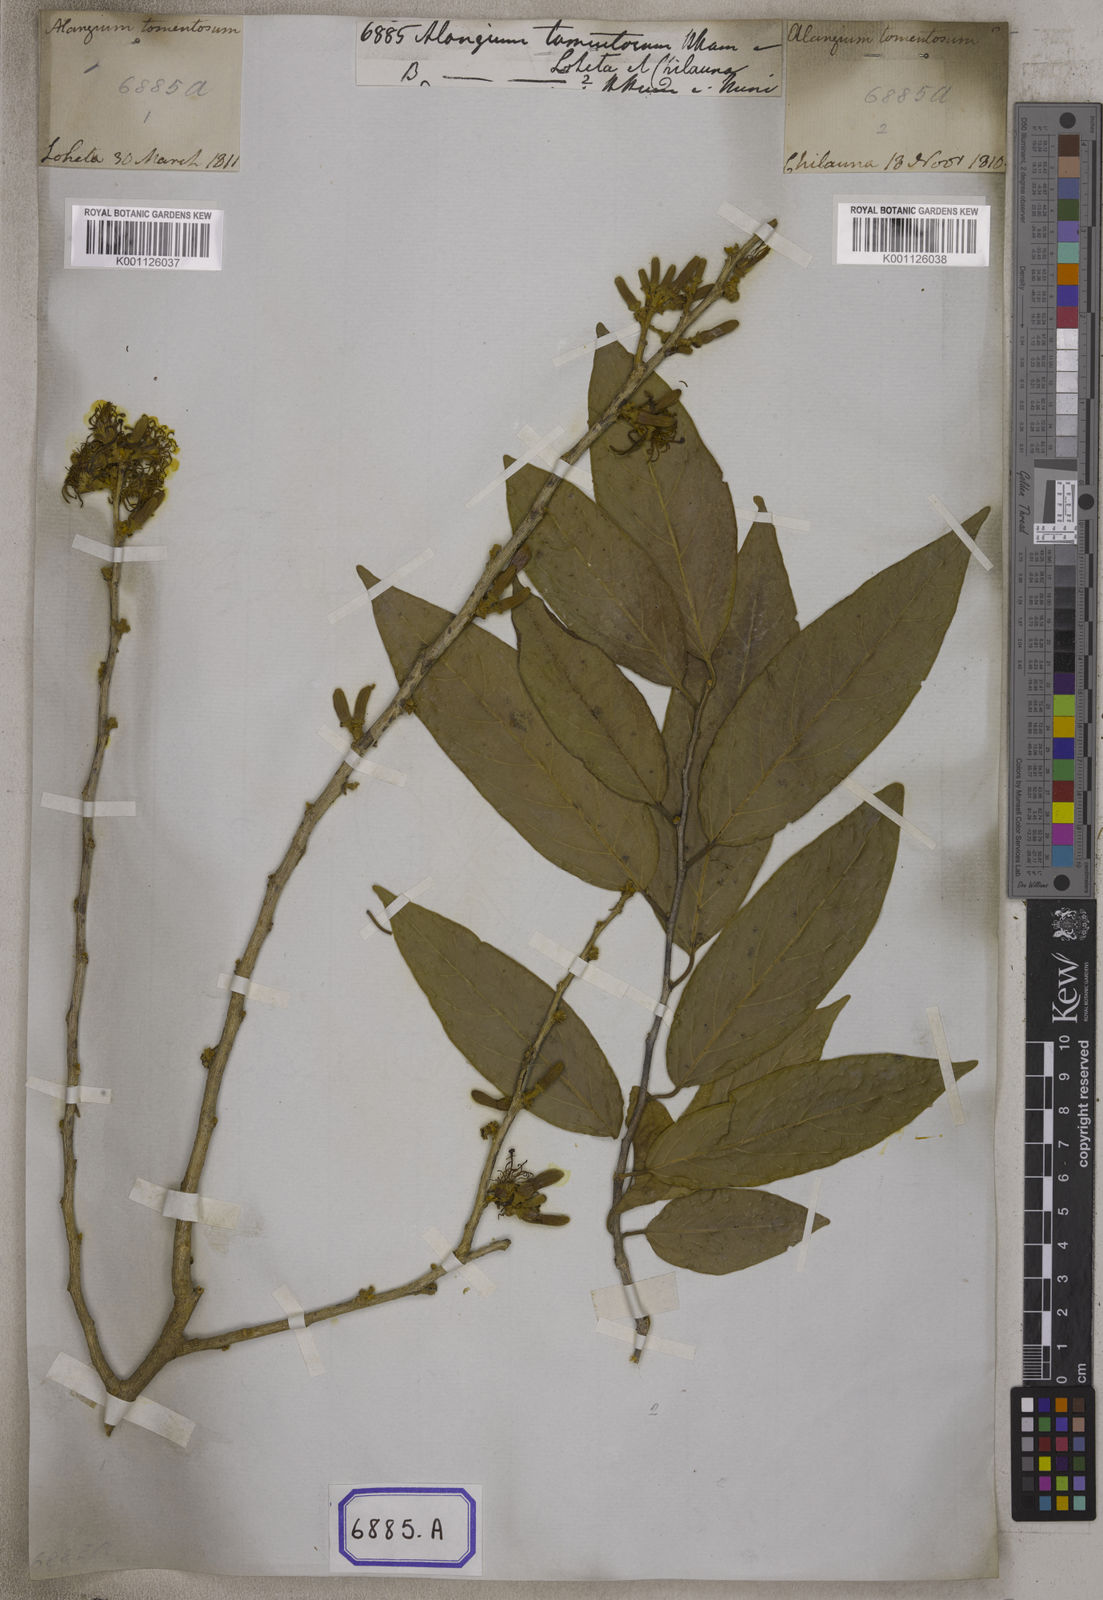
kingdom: Plantae
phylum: Tracheophyta
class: Magnoliopsida
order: Cornales
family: Cornaceae
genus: Alangium
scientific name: Alangium salviifolium
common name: Sage-leaf alangium
